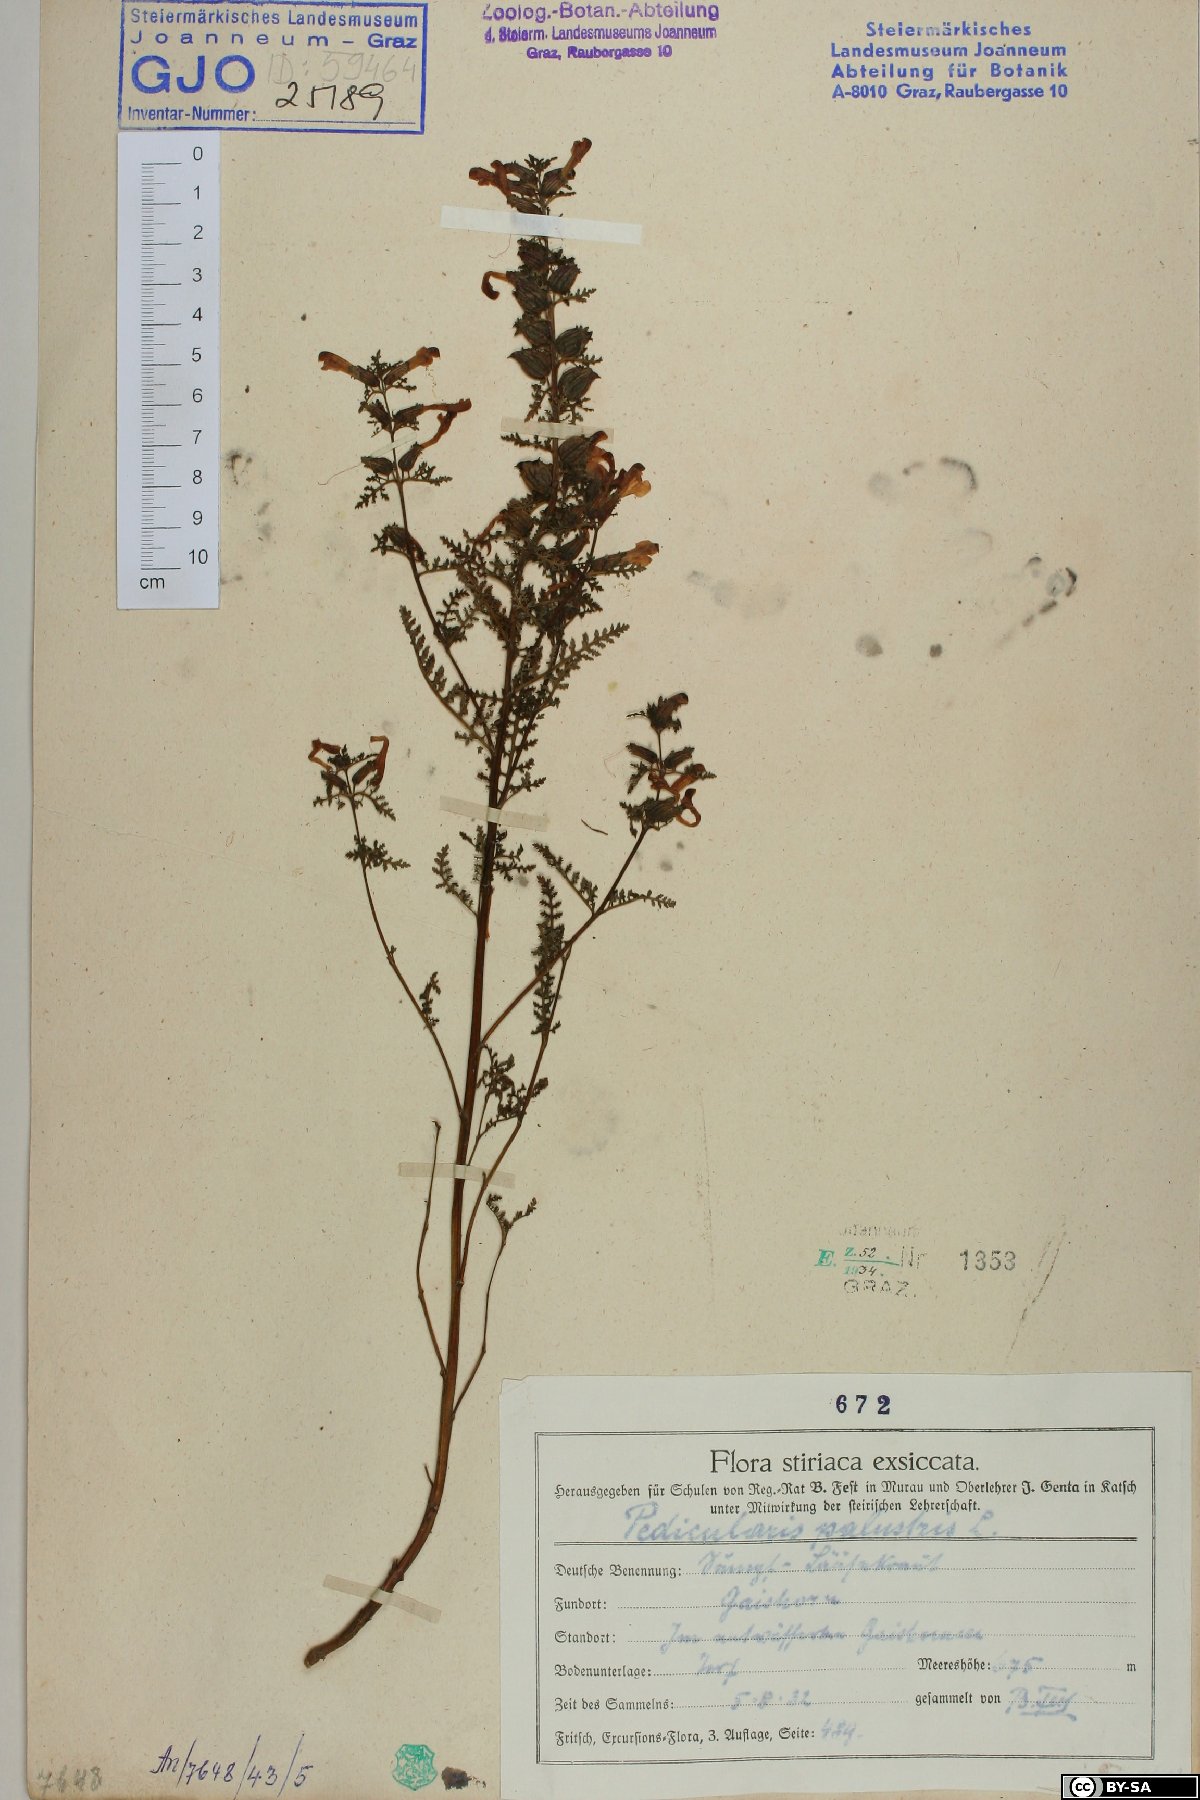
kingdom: Plantae
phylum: Tracheophyta
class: Magnoliopsida
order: Lamiales
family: Orobanchaceae
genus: Pedicularis
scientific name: Pedicularis palustris
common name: Marsh lousewort
